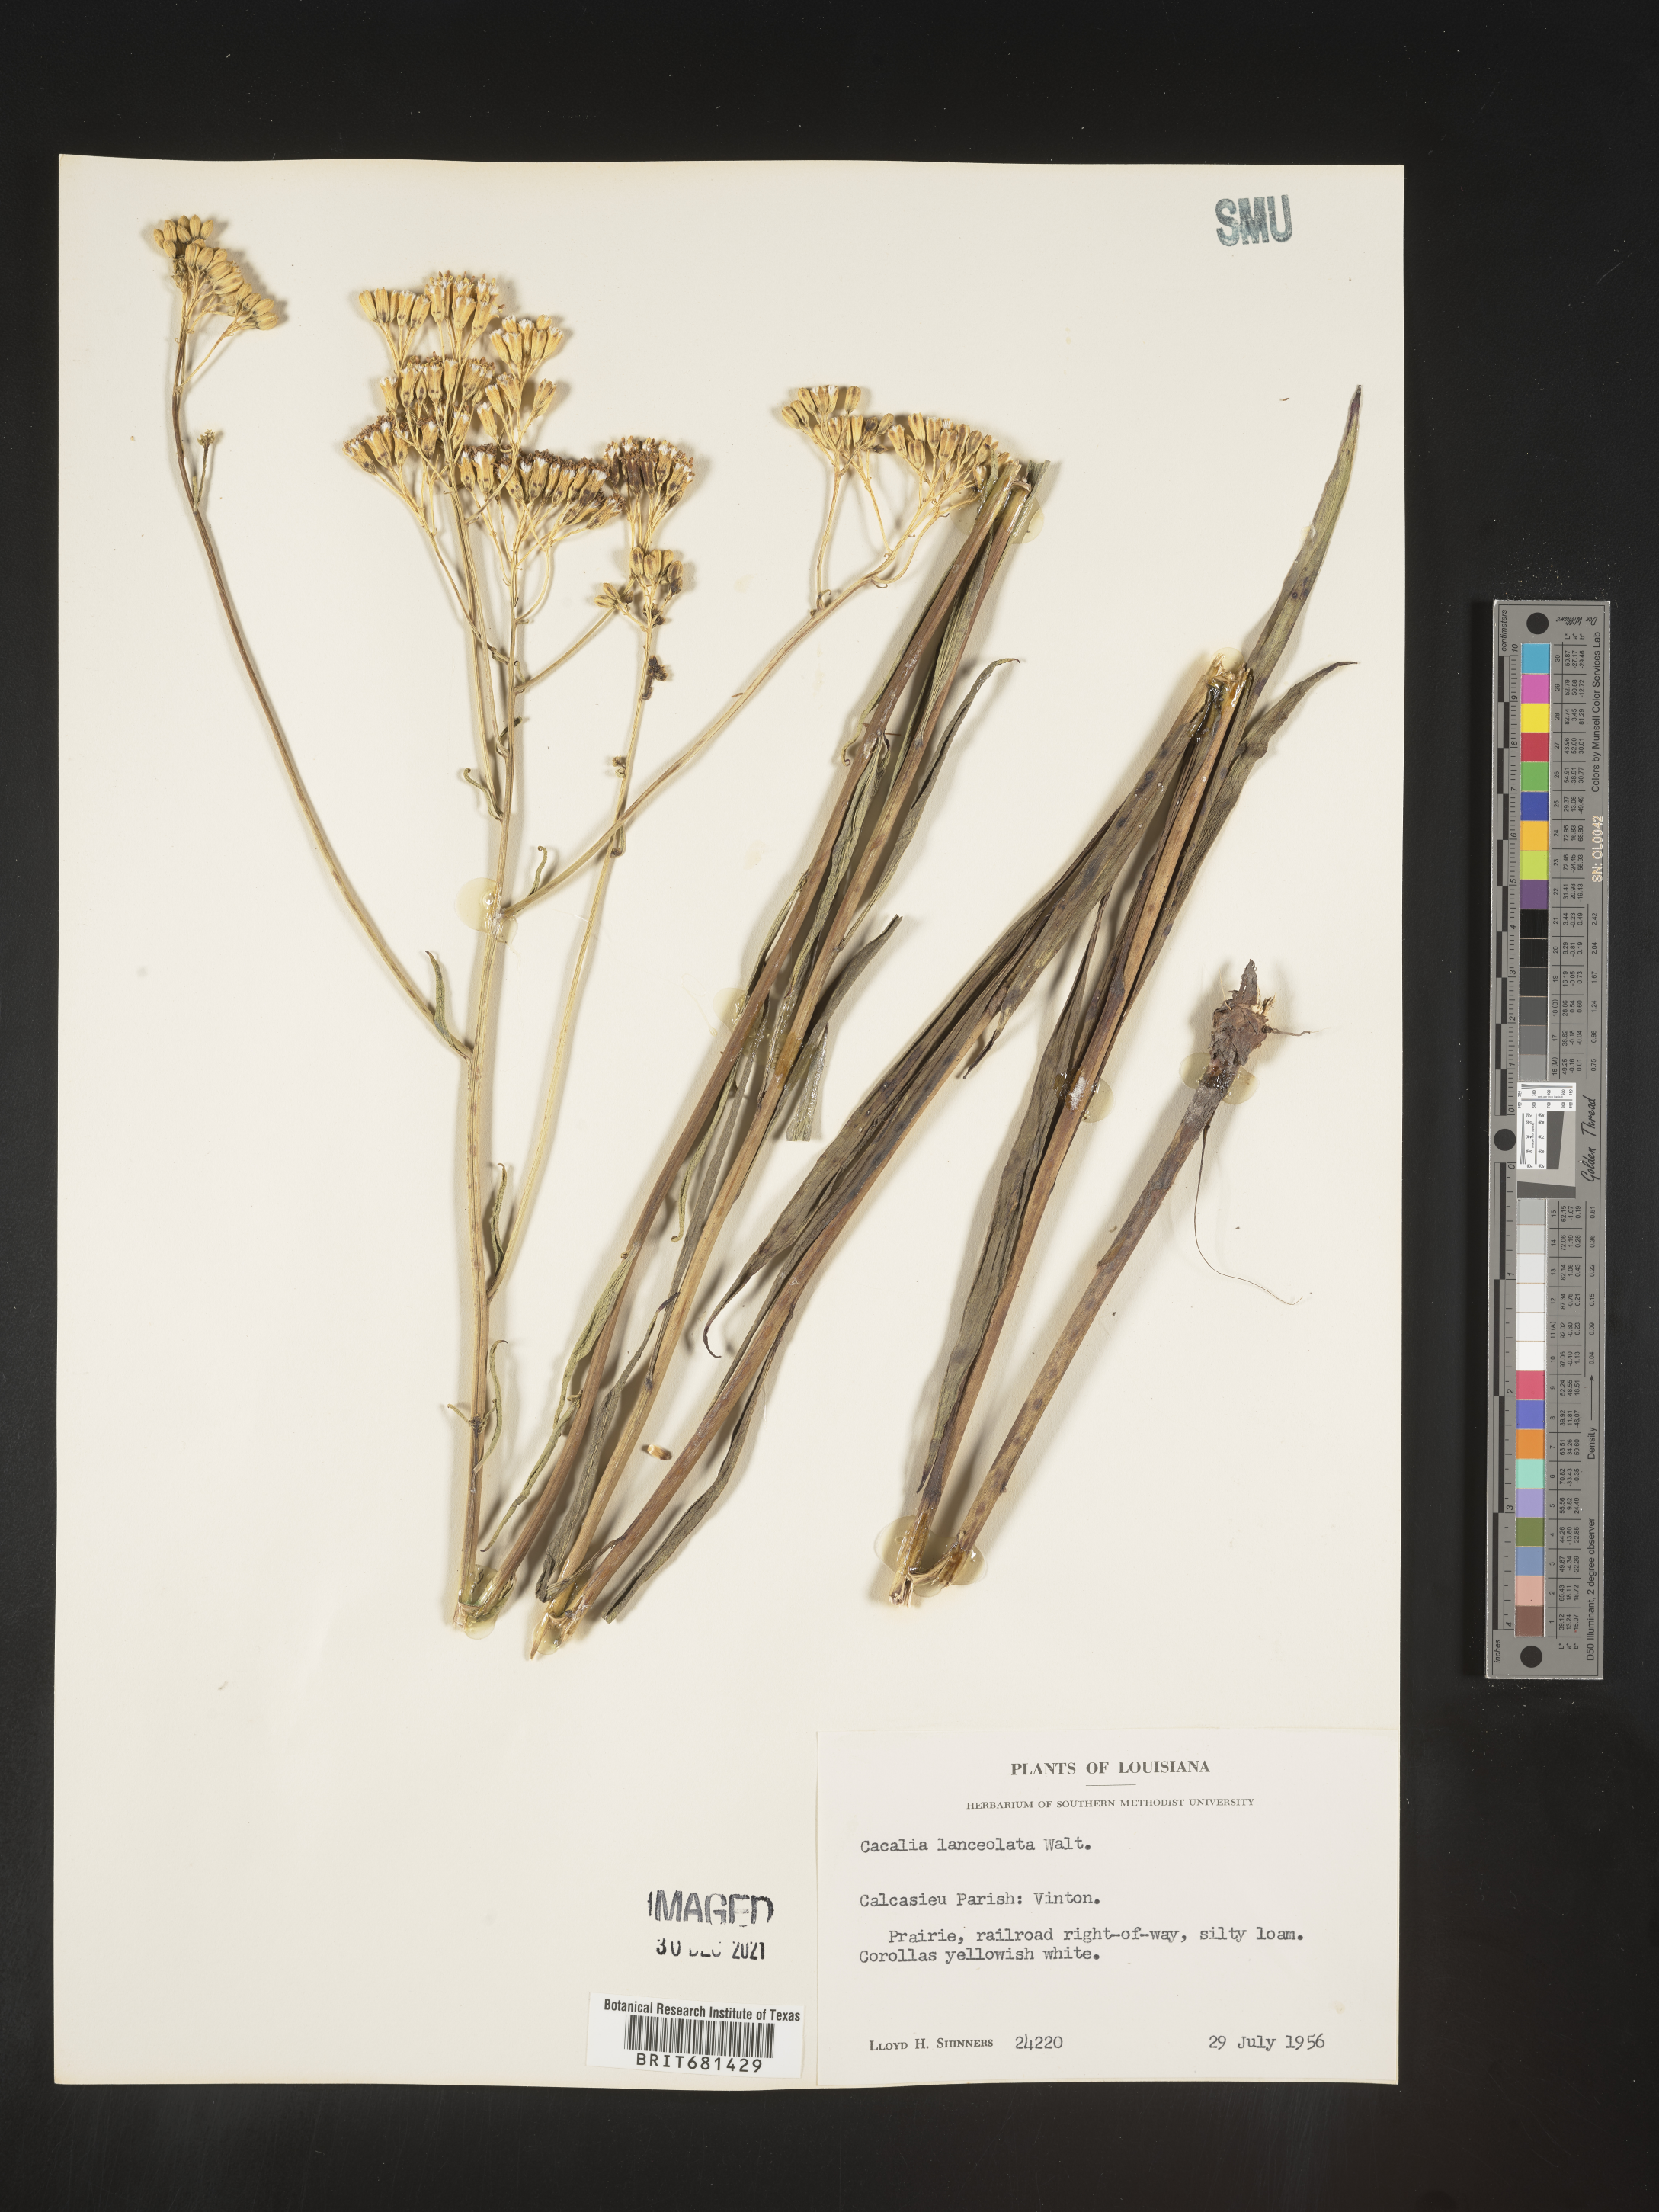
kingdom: Plantae
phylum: Tracheophyta
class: Magnoliopsida
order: Asterales
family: Asteraceae
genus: Arnoglossum
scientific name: Arnoglossum ovatum
